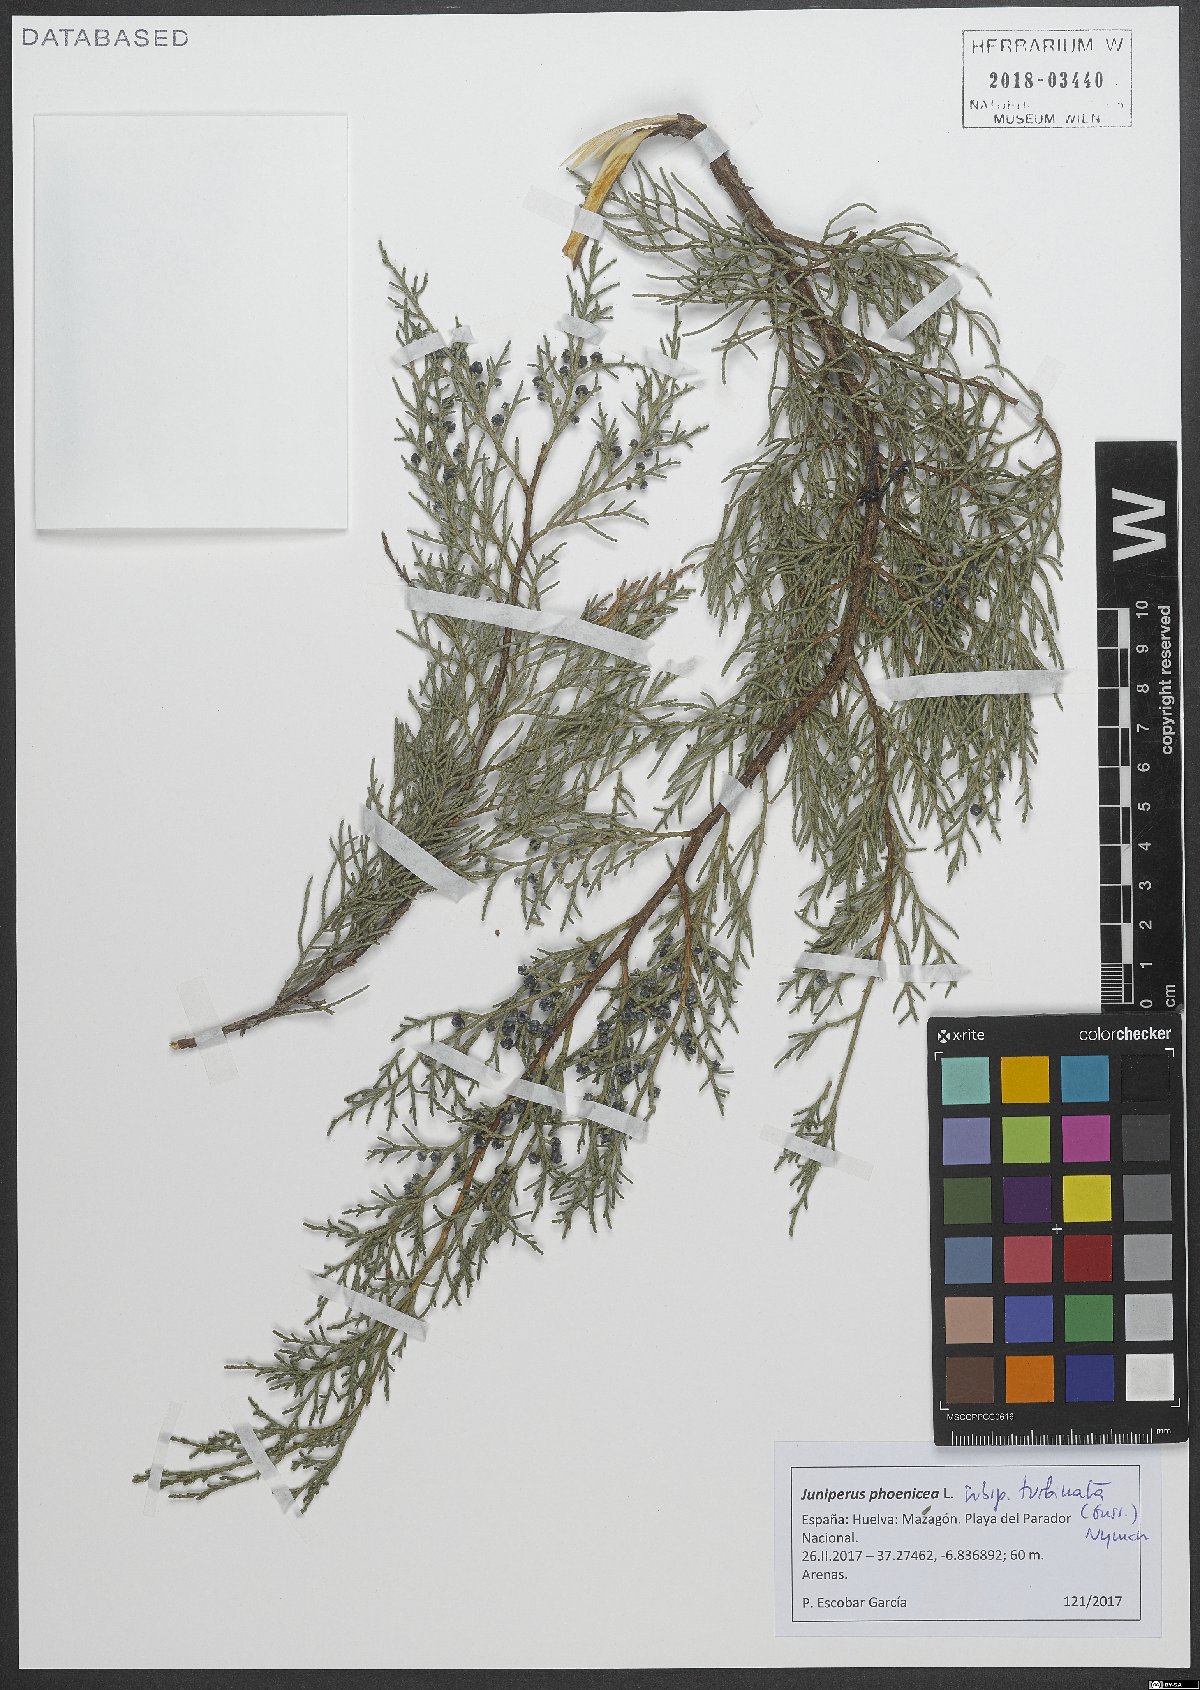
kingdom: Plantae
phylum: Tracheophyta
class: Pinopsida
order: Pinales
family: Cupressaceae
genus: Juniperus
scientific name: Juniperus phoenicea
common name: Phoenician juniper
